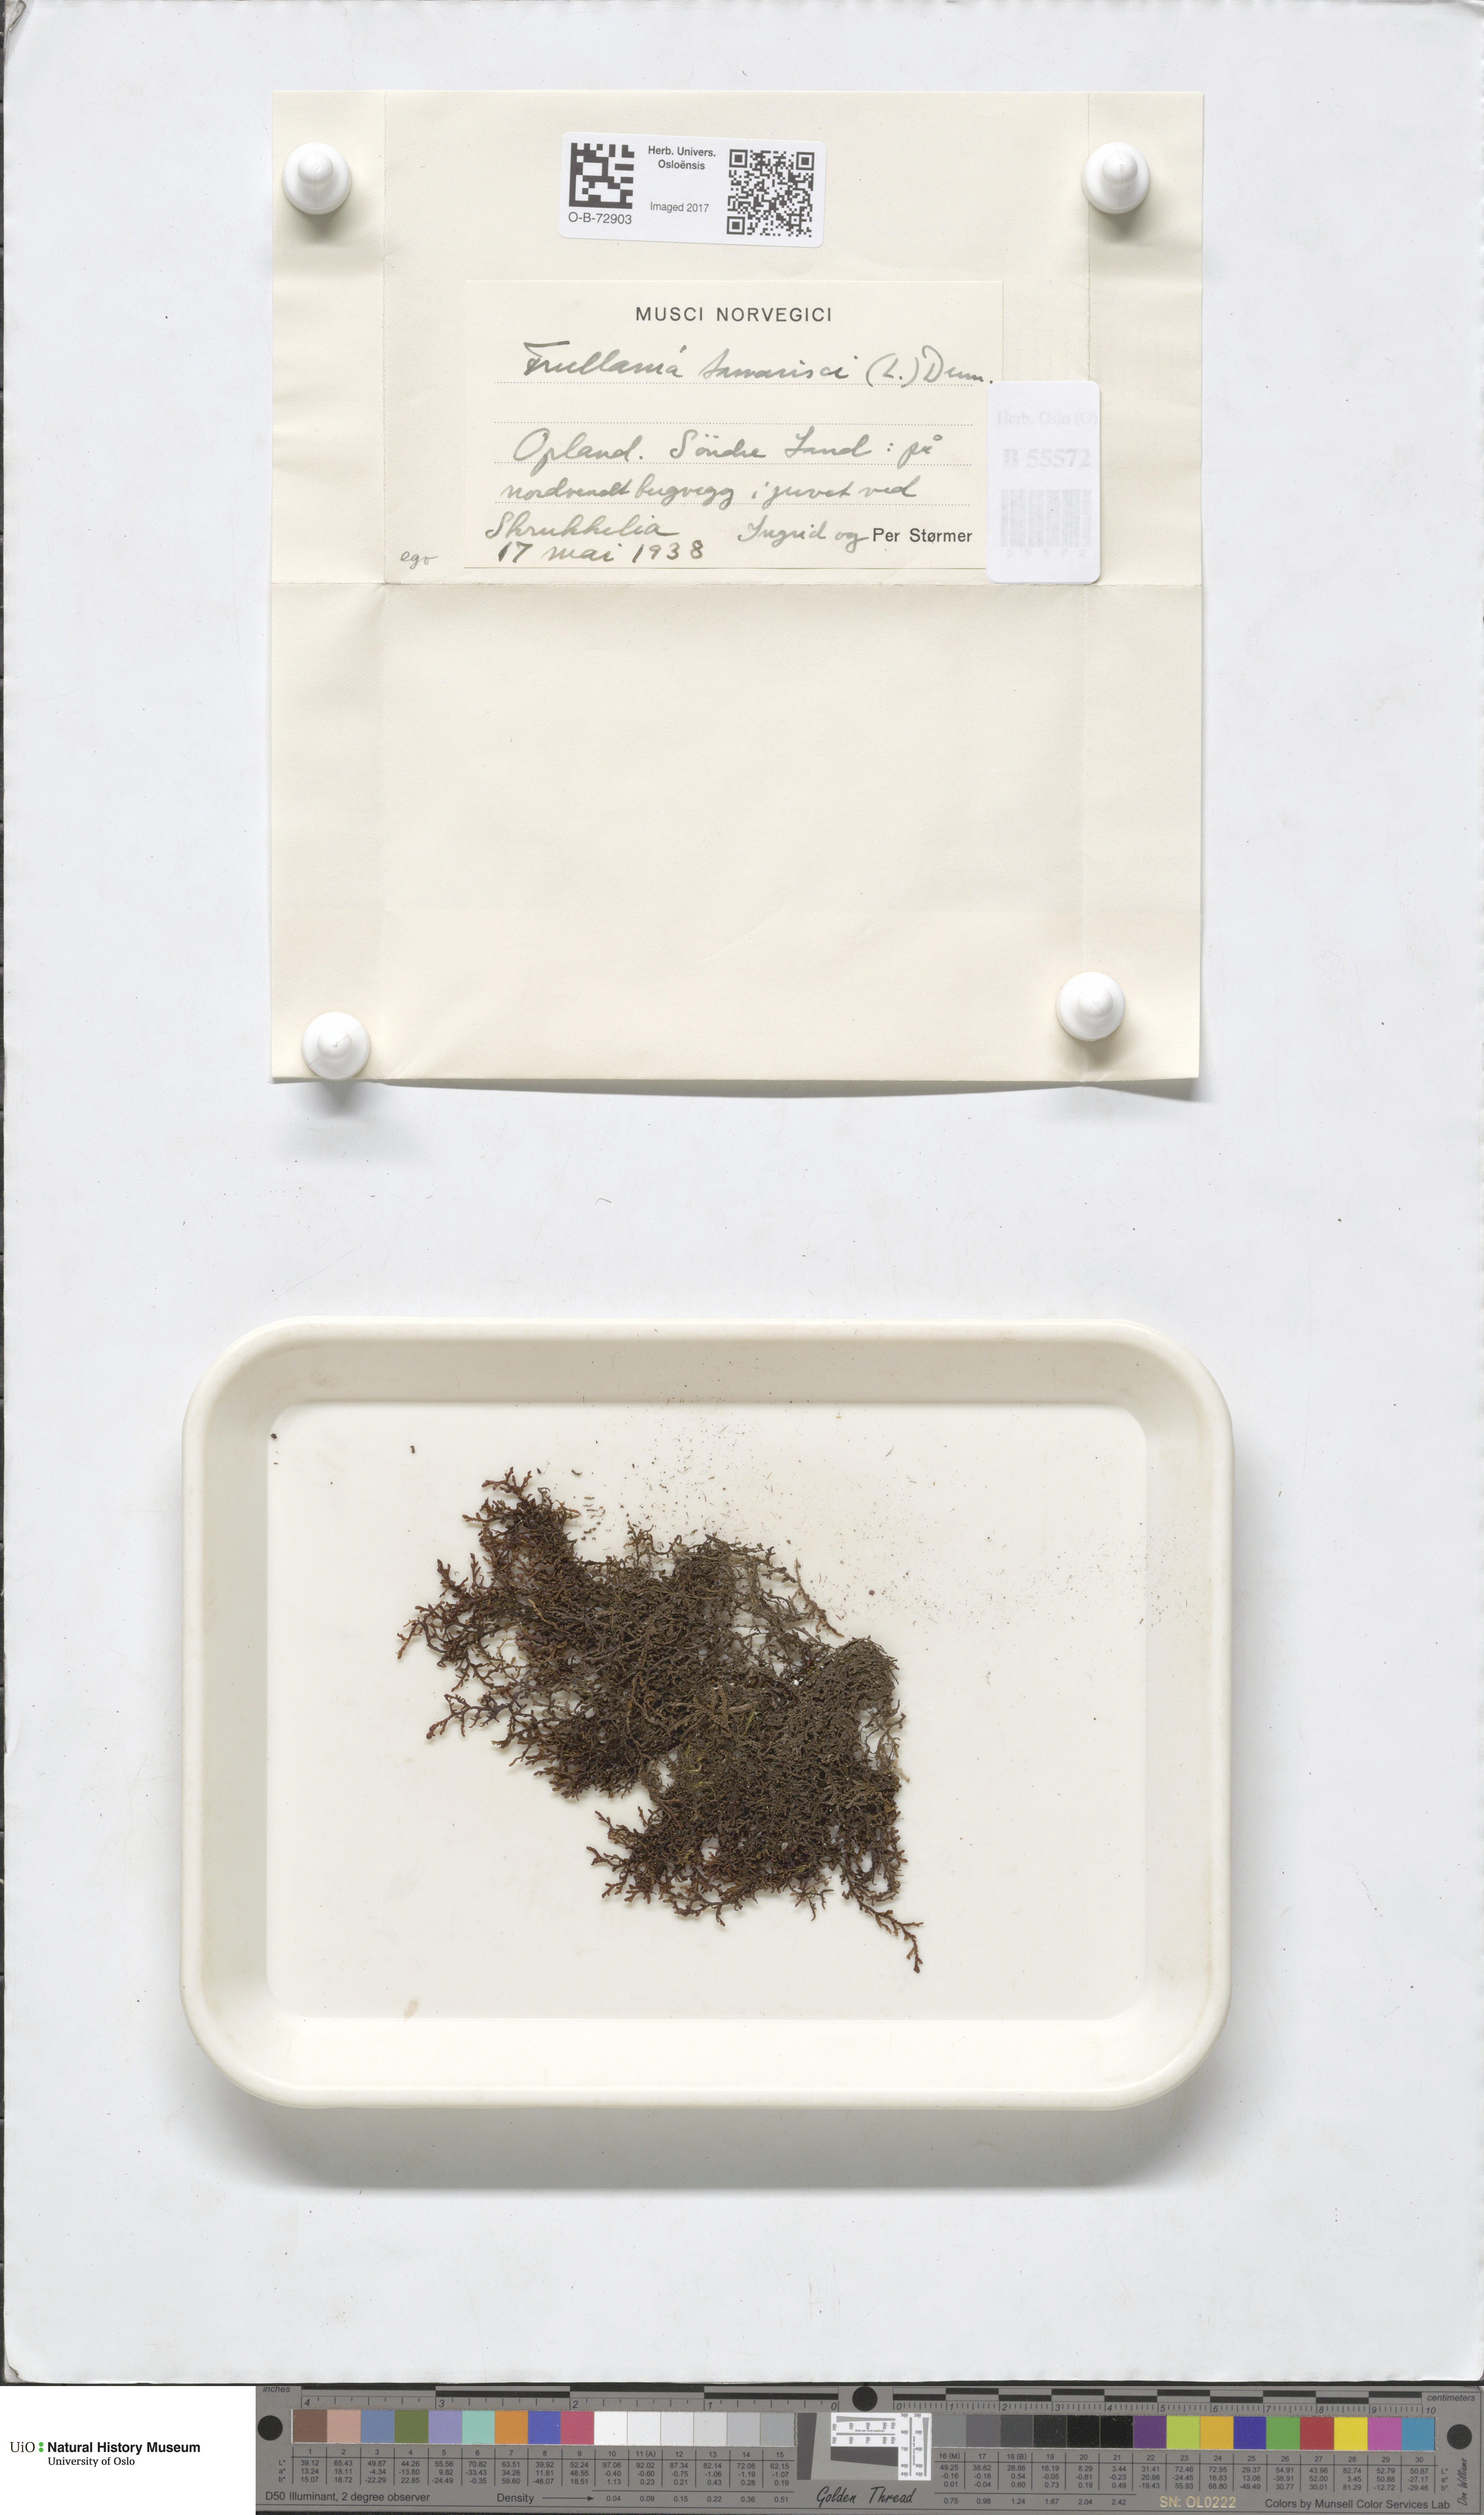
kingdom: Plantae
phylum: Marchantiophyta
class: Jungermanniopsida
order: Porellales
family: Frullaniaceae
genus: Frullania
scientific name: Frullania tamarisci
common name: Tamarisk scalewort
